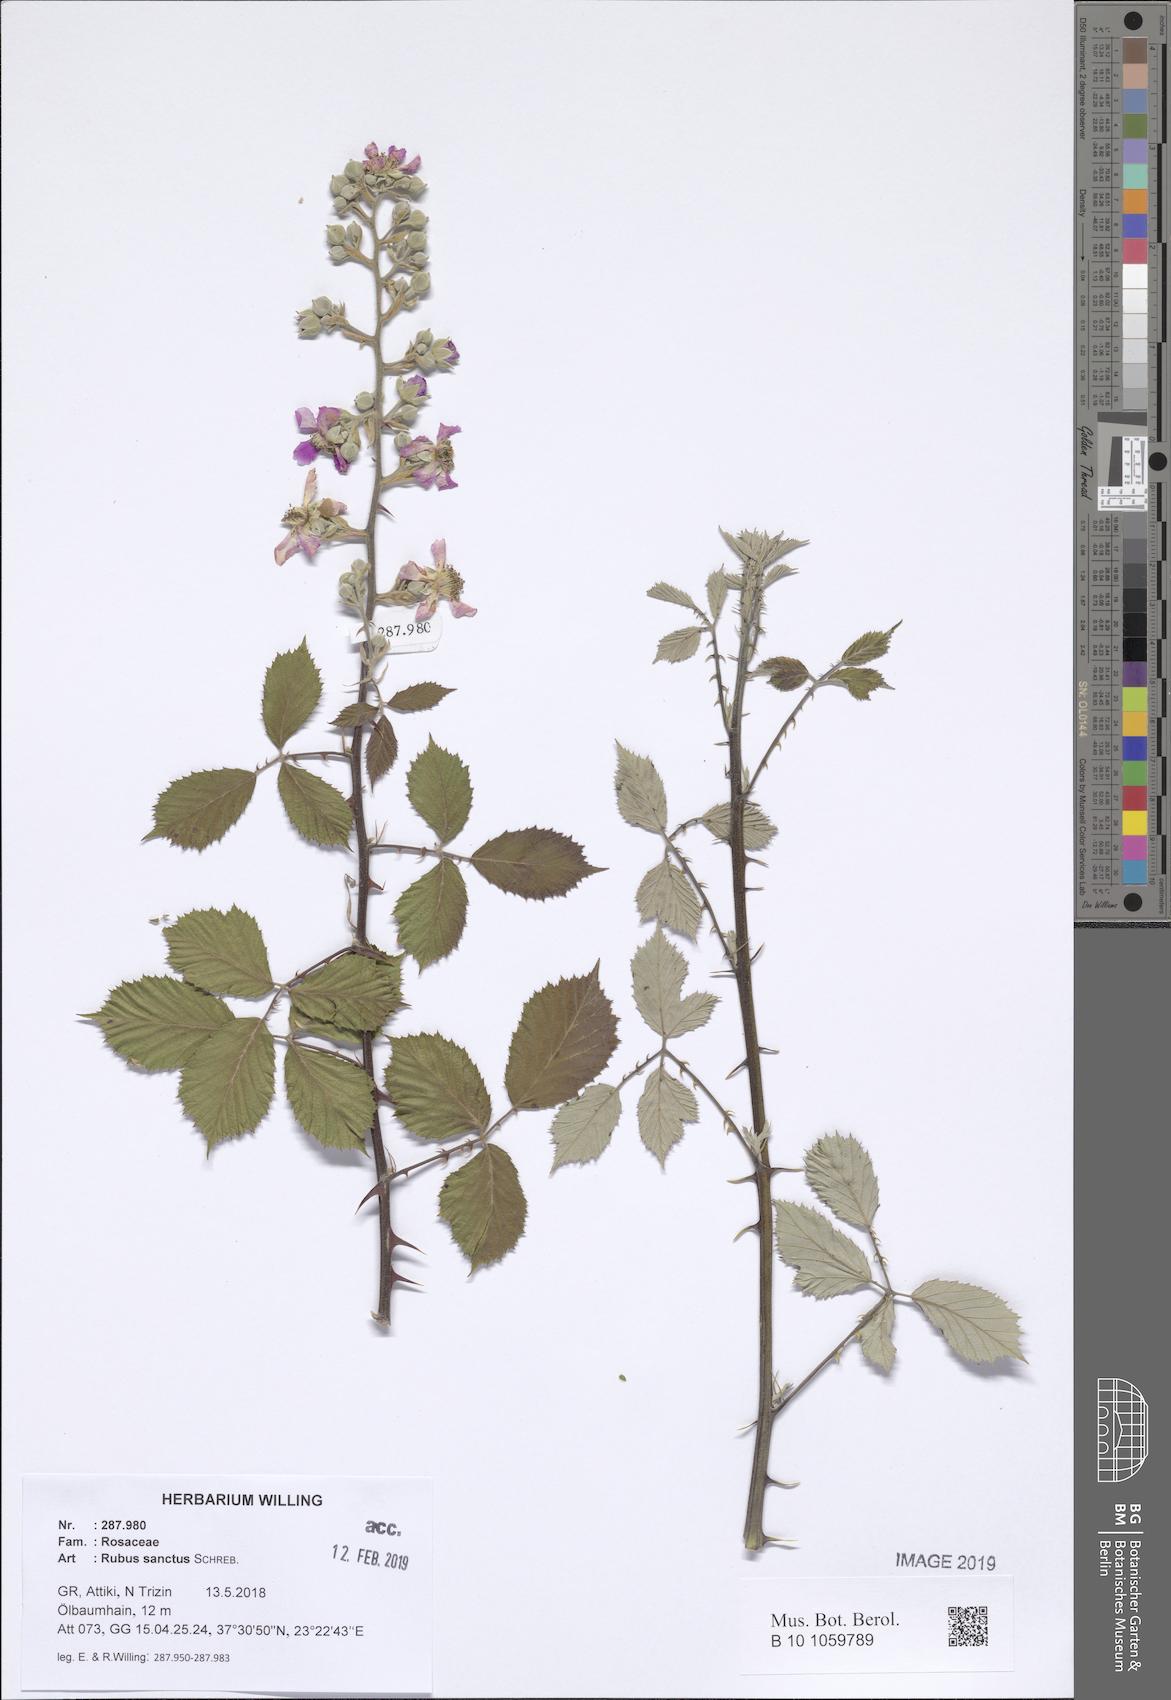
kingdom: Plantae
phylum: Tracheophyta
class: Magnoliopsida
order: Rosales
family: Rosaceae
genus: Rubus
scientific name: Rubus sanctus
